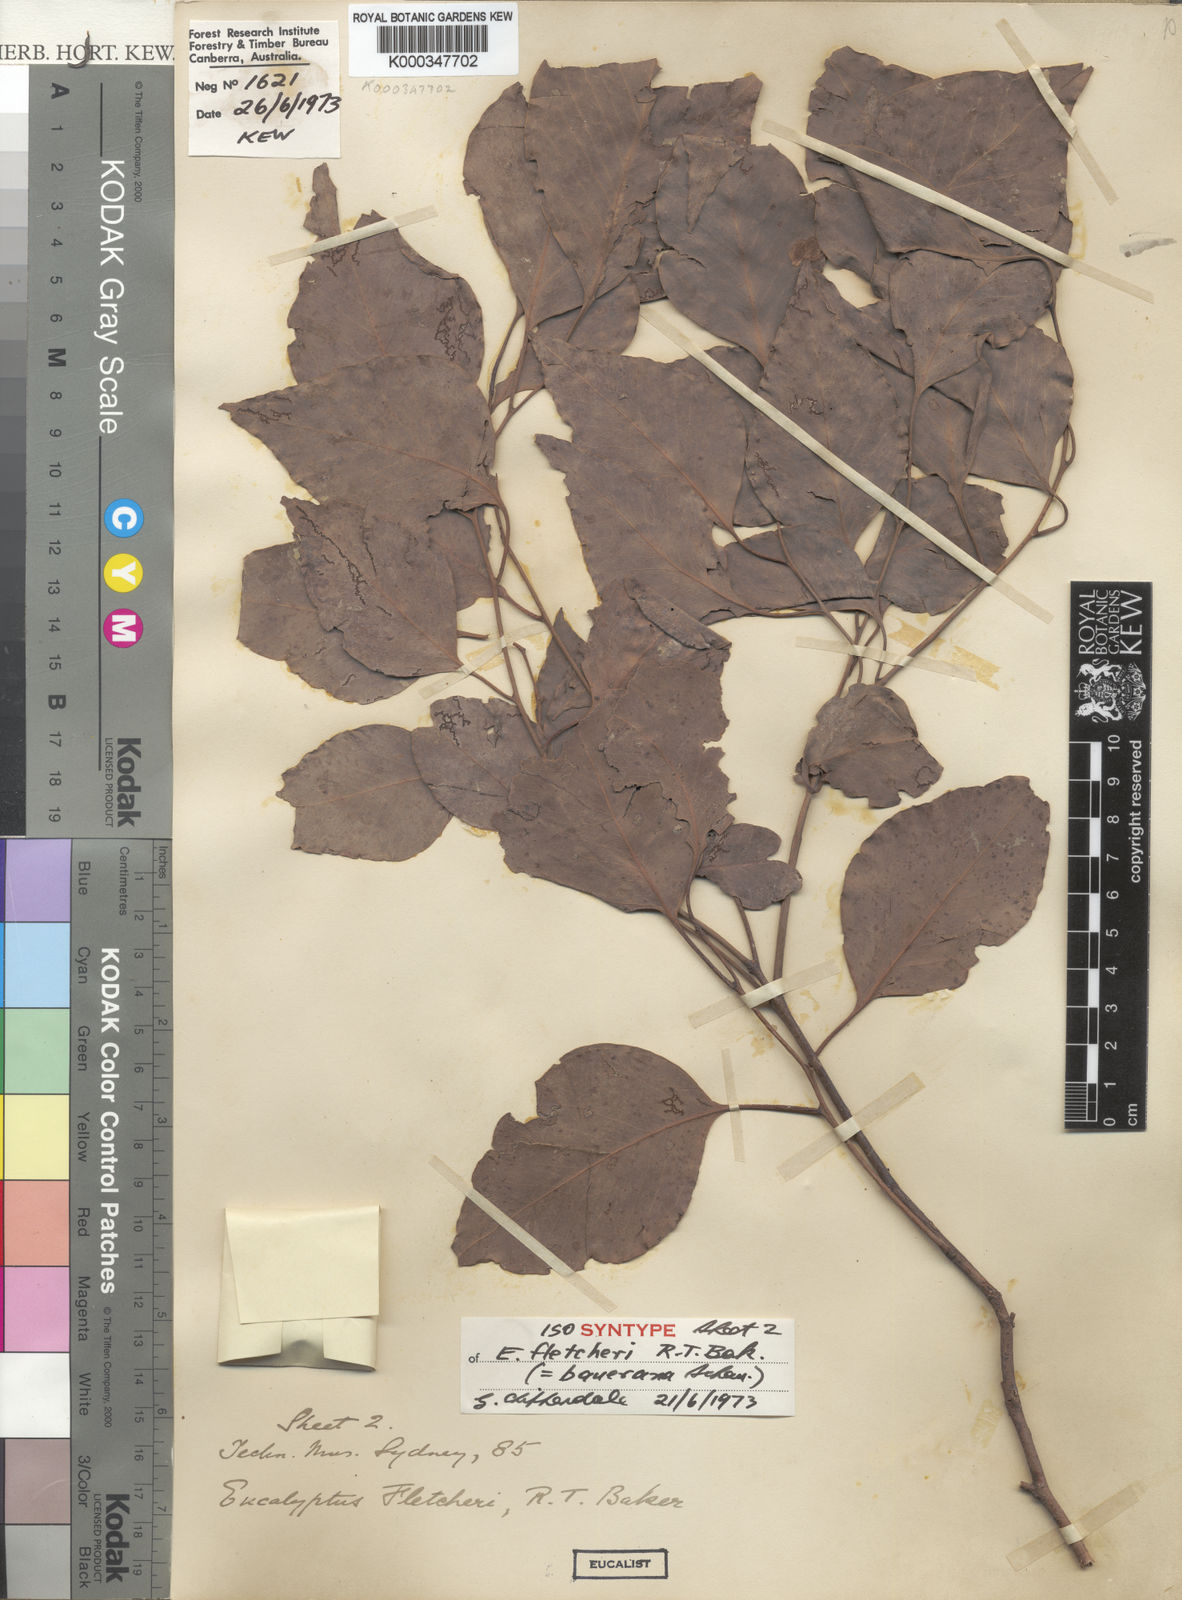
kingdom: Plantae
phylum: Tracheophyta
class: Magnoliopsida
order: Myrtales
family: Myrtaceae
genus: Eucalyptus
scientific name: Eucalyptus baueriana
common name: Round-leaf-box
